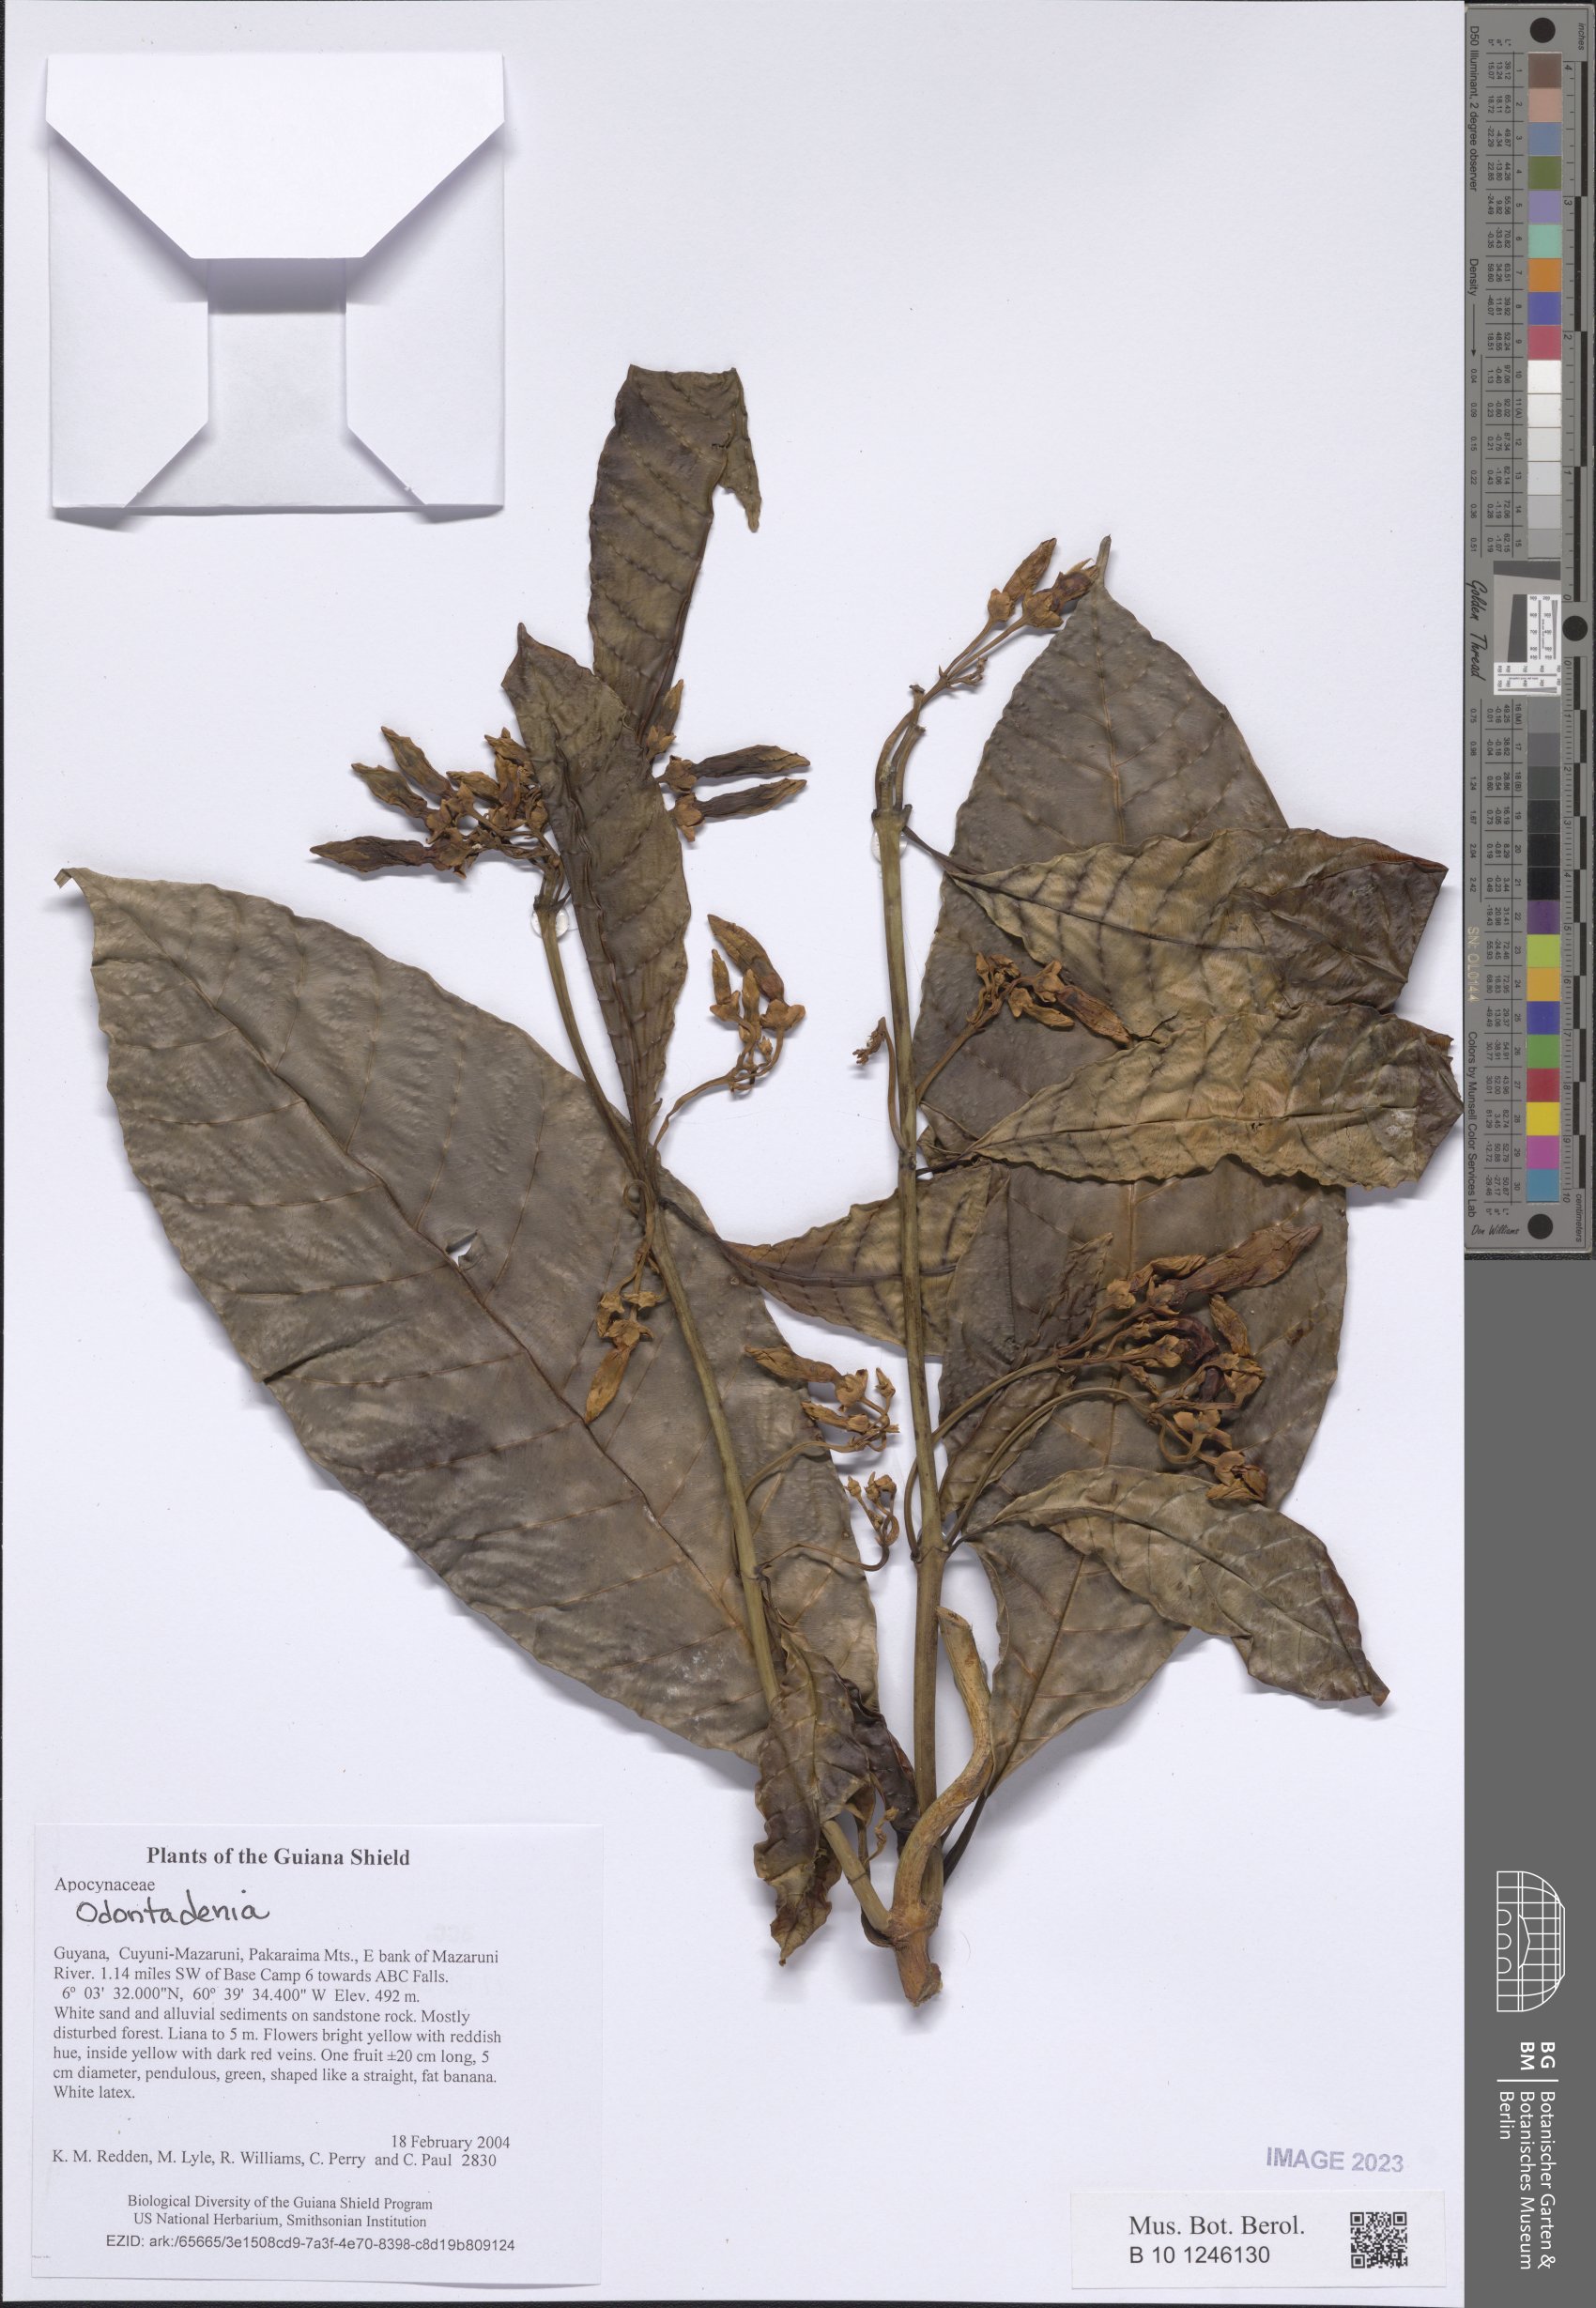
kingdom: Plantae
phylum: Tracheophyta
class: Magnoliopsida
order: Gentianales
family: Apocynaceae
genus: Odontadenia
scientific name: Odontadenia
